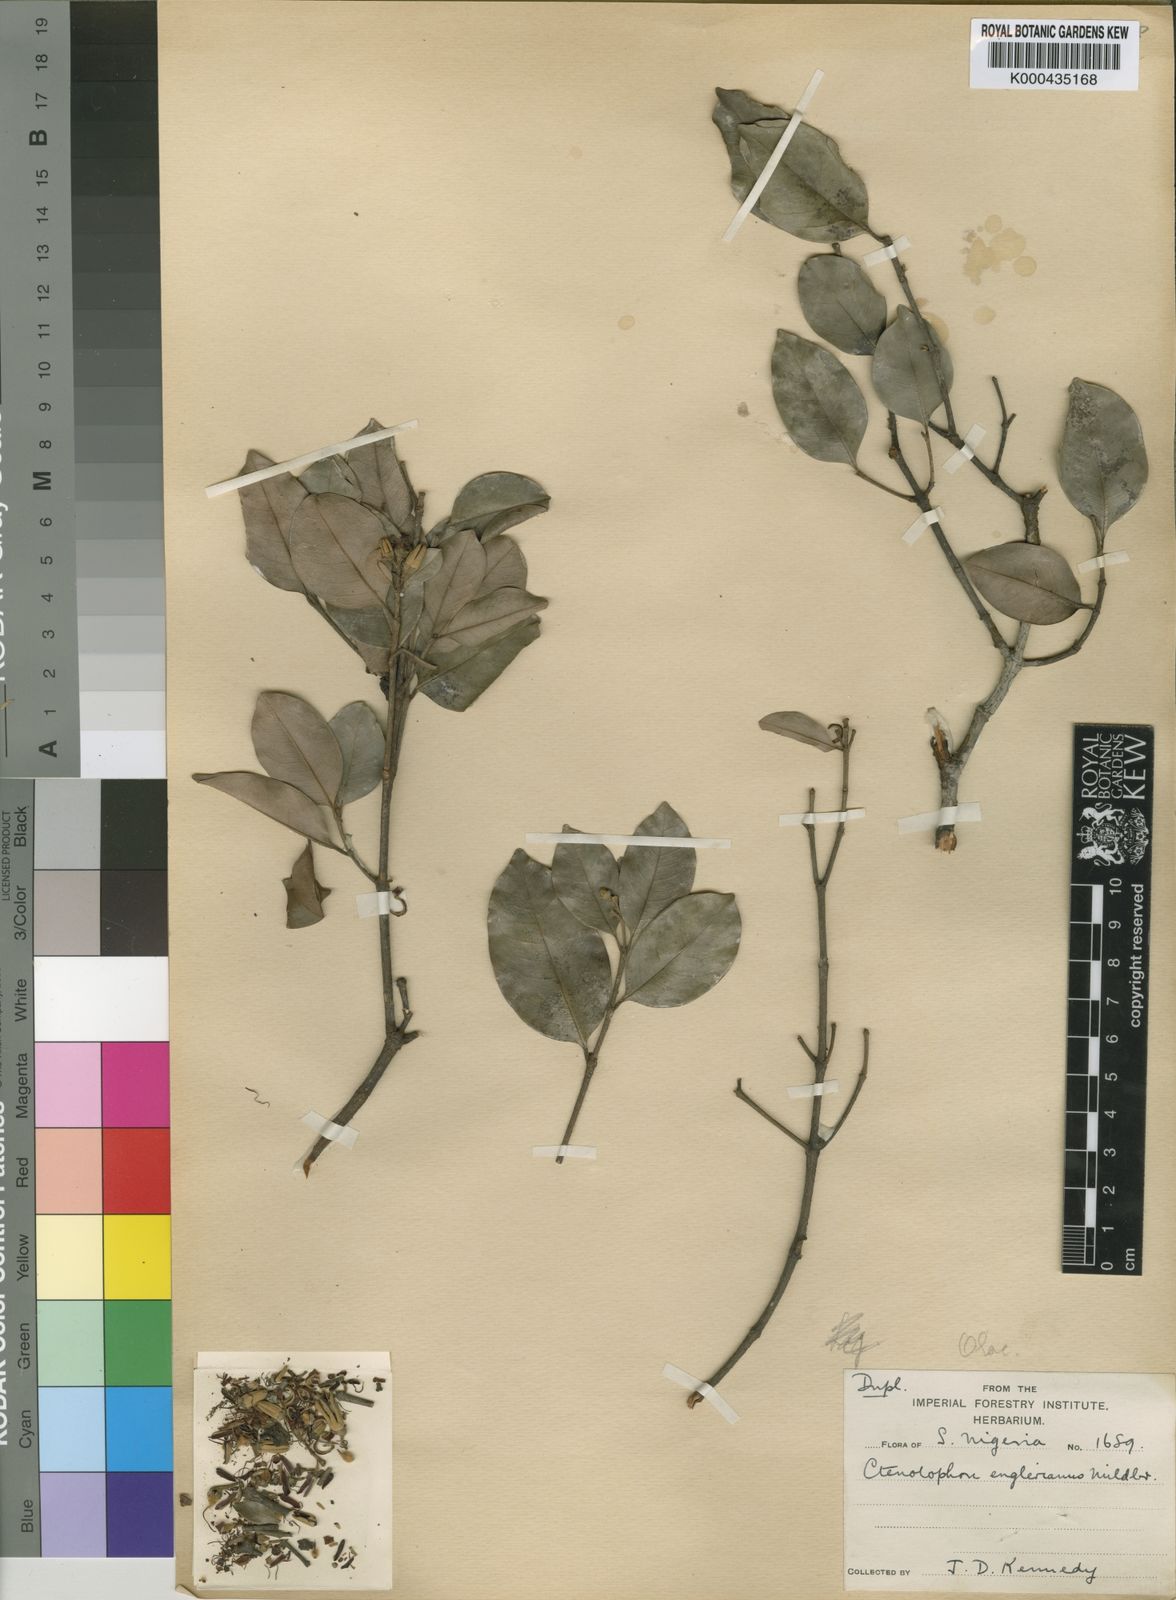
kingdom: Plantae
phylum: Tracheophyta
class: Magnoliopsida
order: Malpighiales
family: Ctenolophonaceae
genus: Ctenolophon
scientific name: Ctenolophon englerianus
